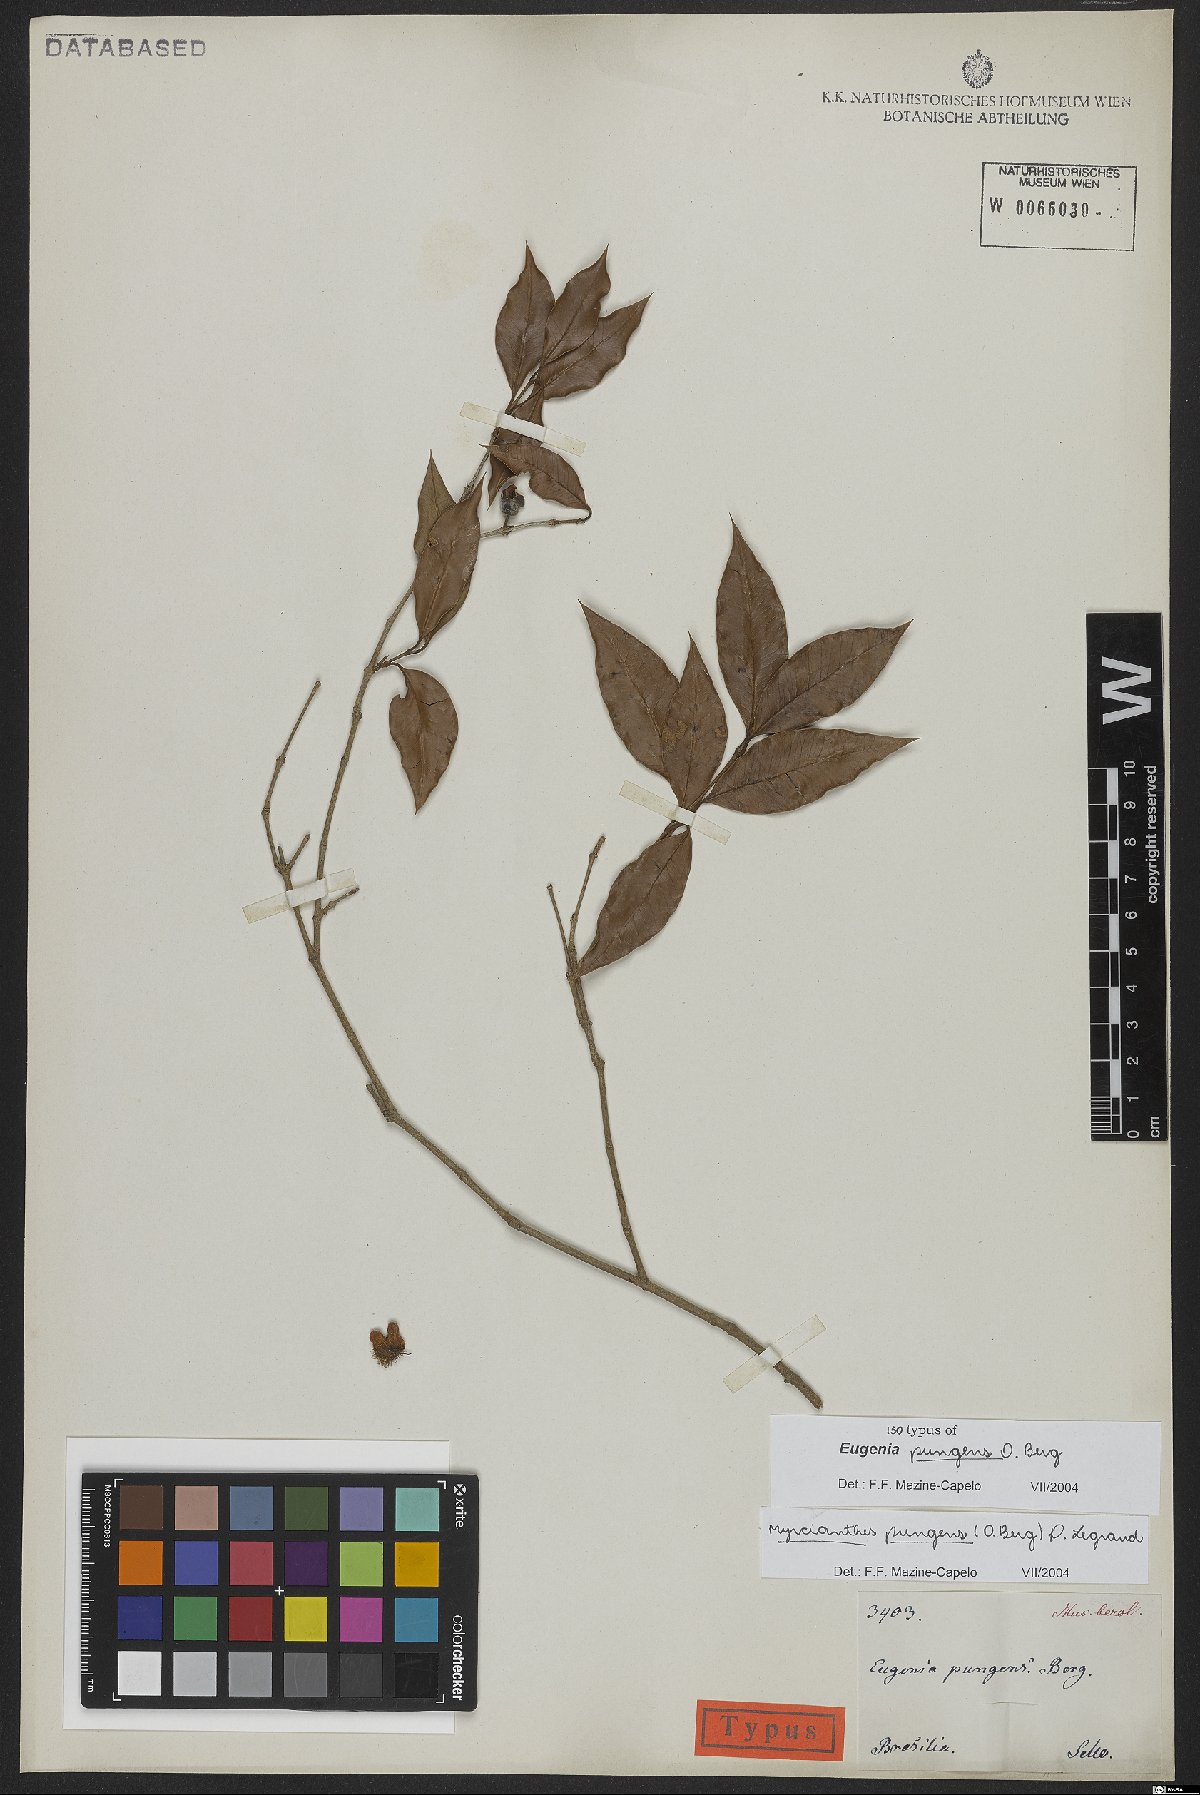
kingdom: Plantae
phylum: Tracheophyta
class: Magnoliopsida
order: Myrtales
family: Myrtaceae
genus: Myrcianthes
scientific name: Myrcianthes pungens
